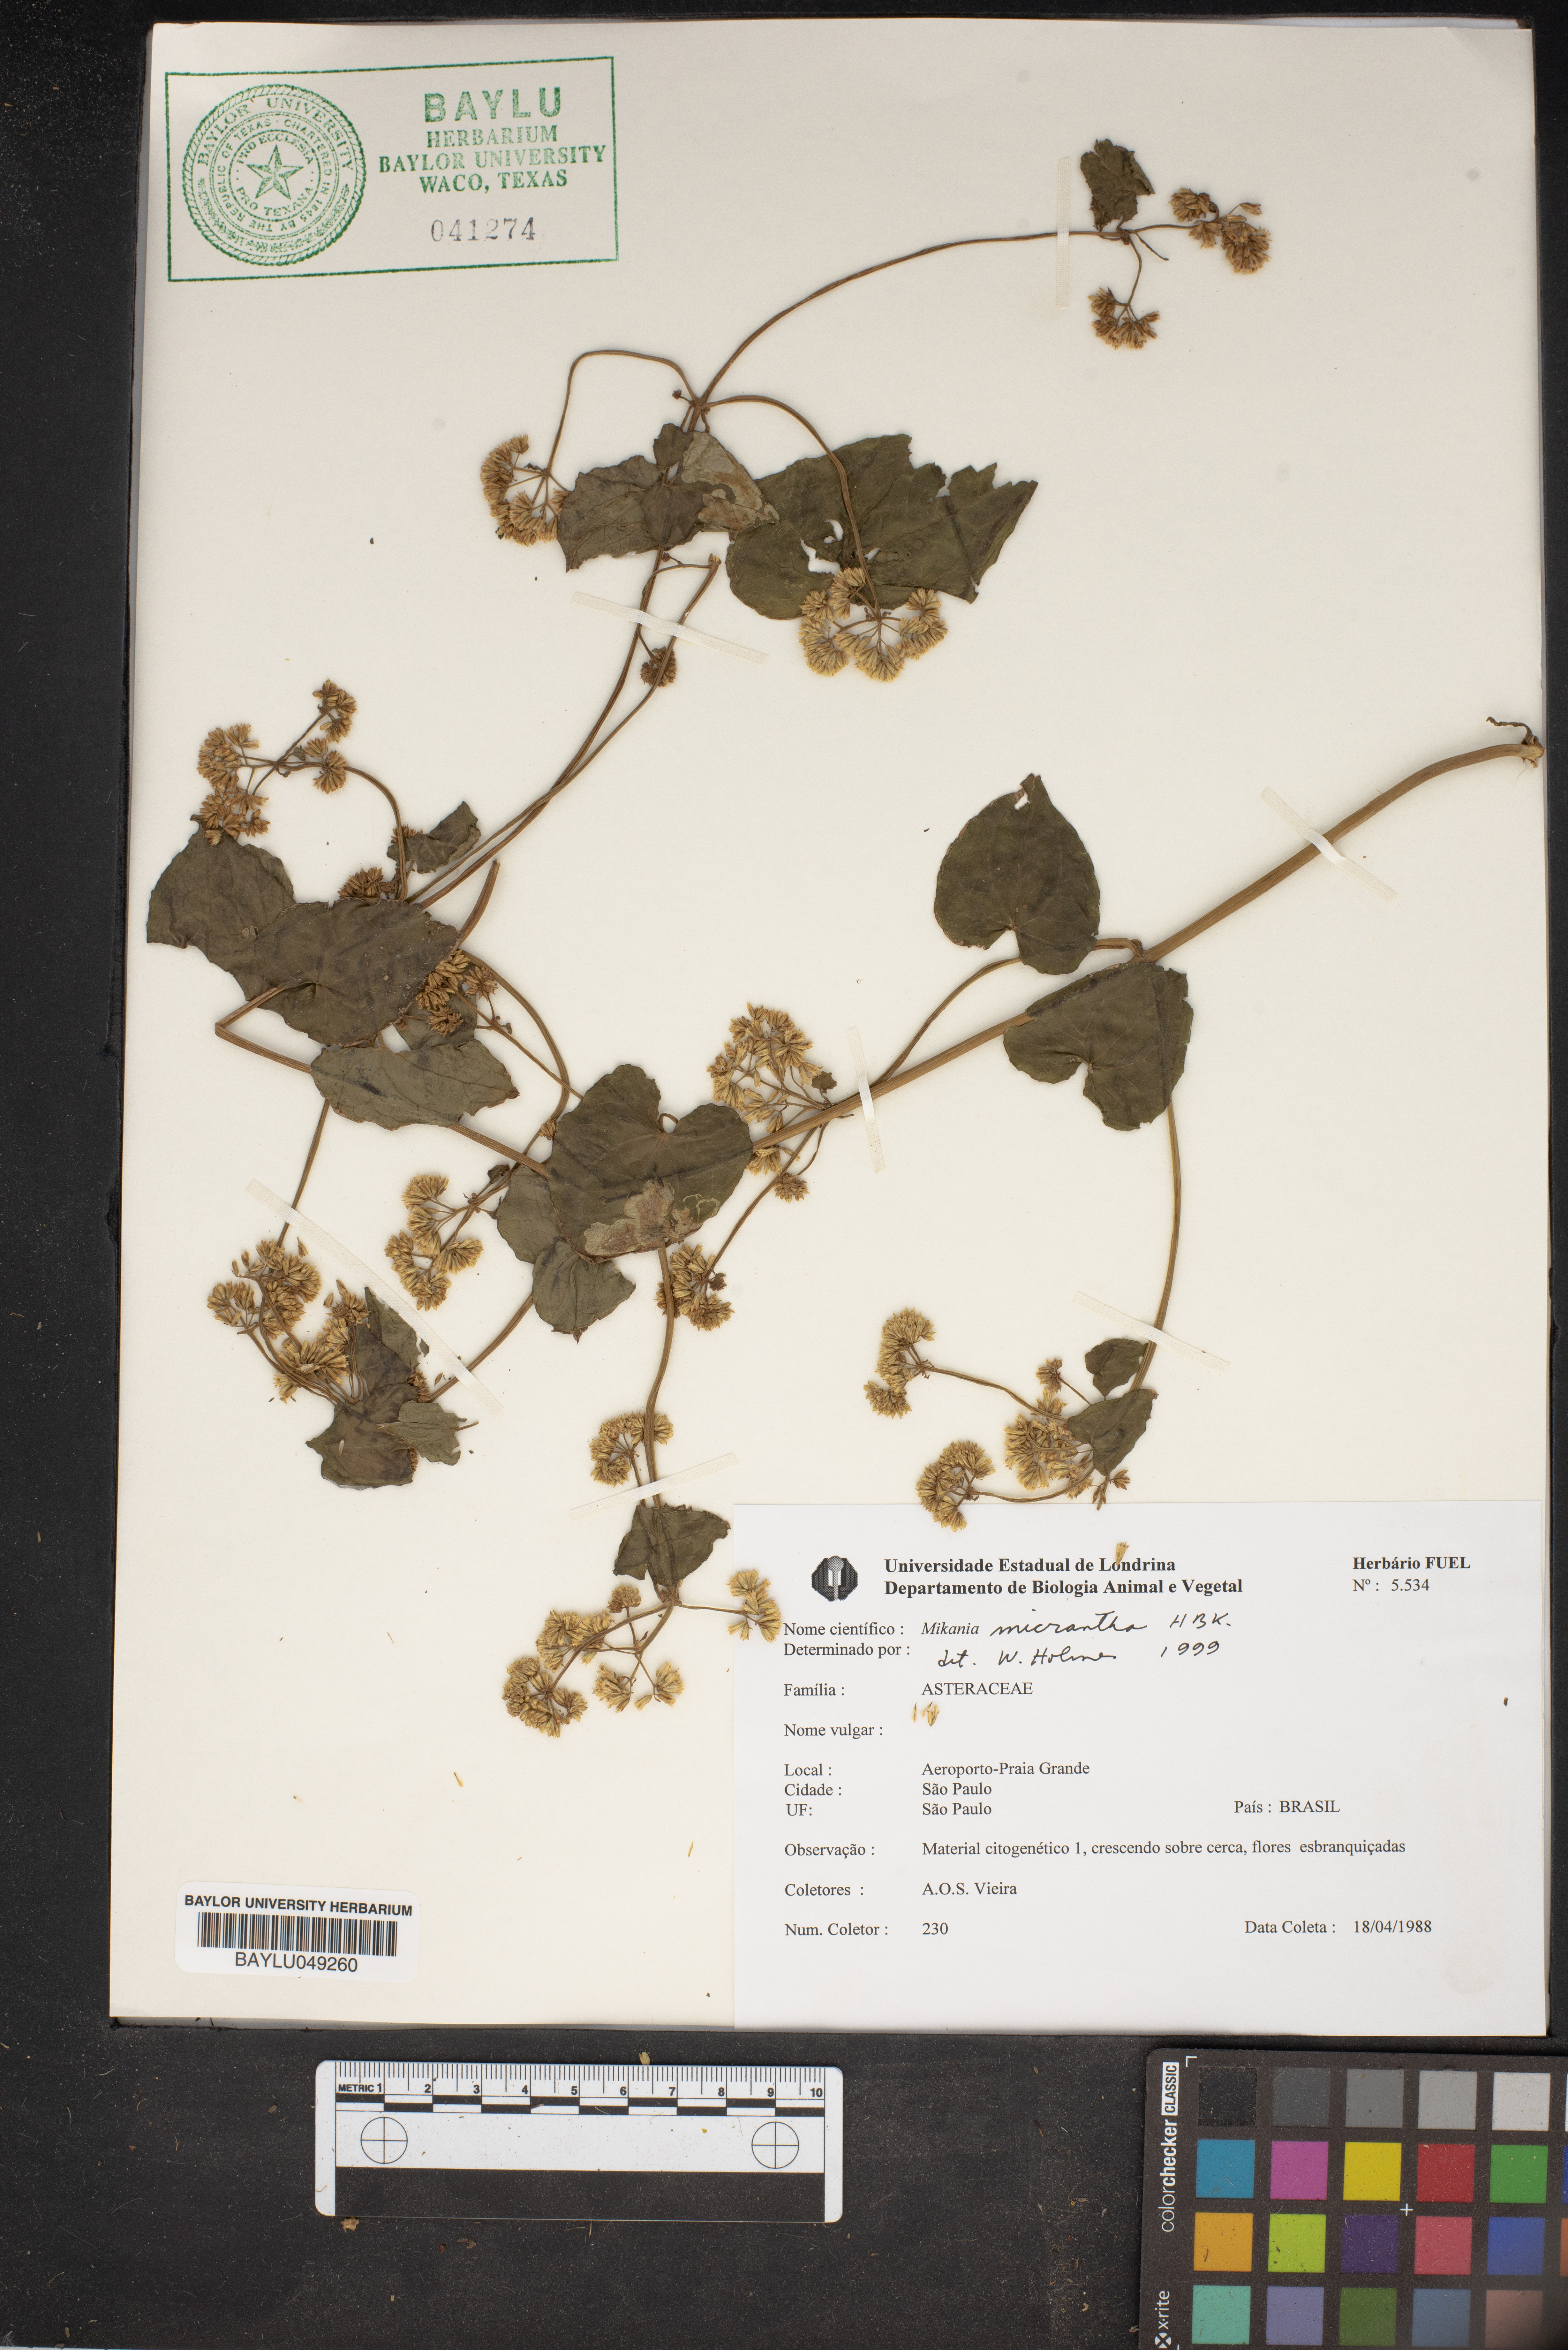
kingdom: Plantae
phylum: Tracheophyta
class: Magnoliopsida
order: Asterales
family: Asteraceae
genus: Mikania
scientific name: Mikania micrantha
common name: Mile-a-minute
